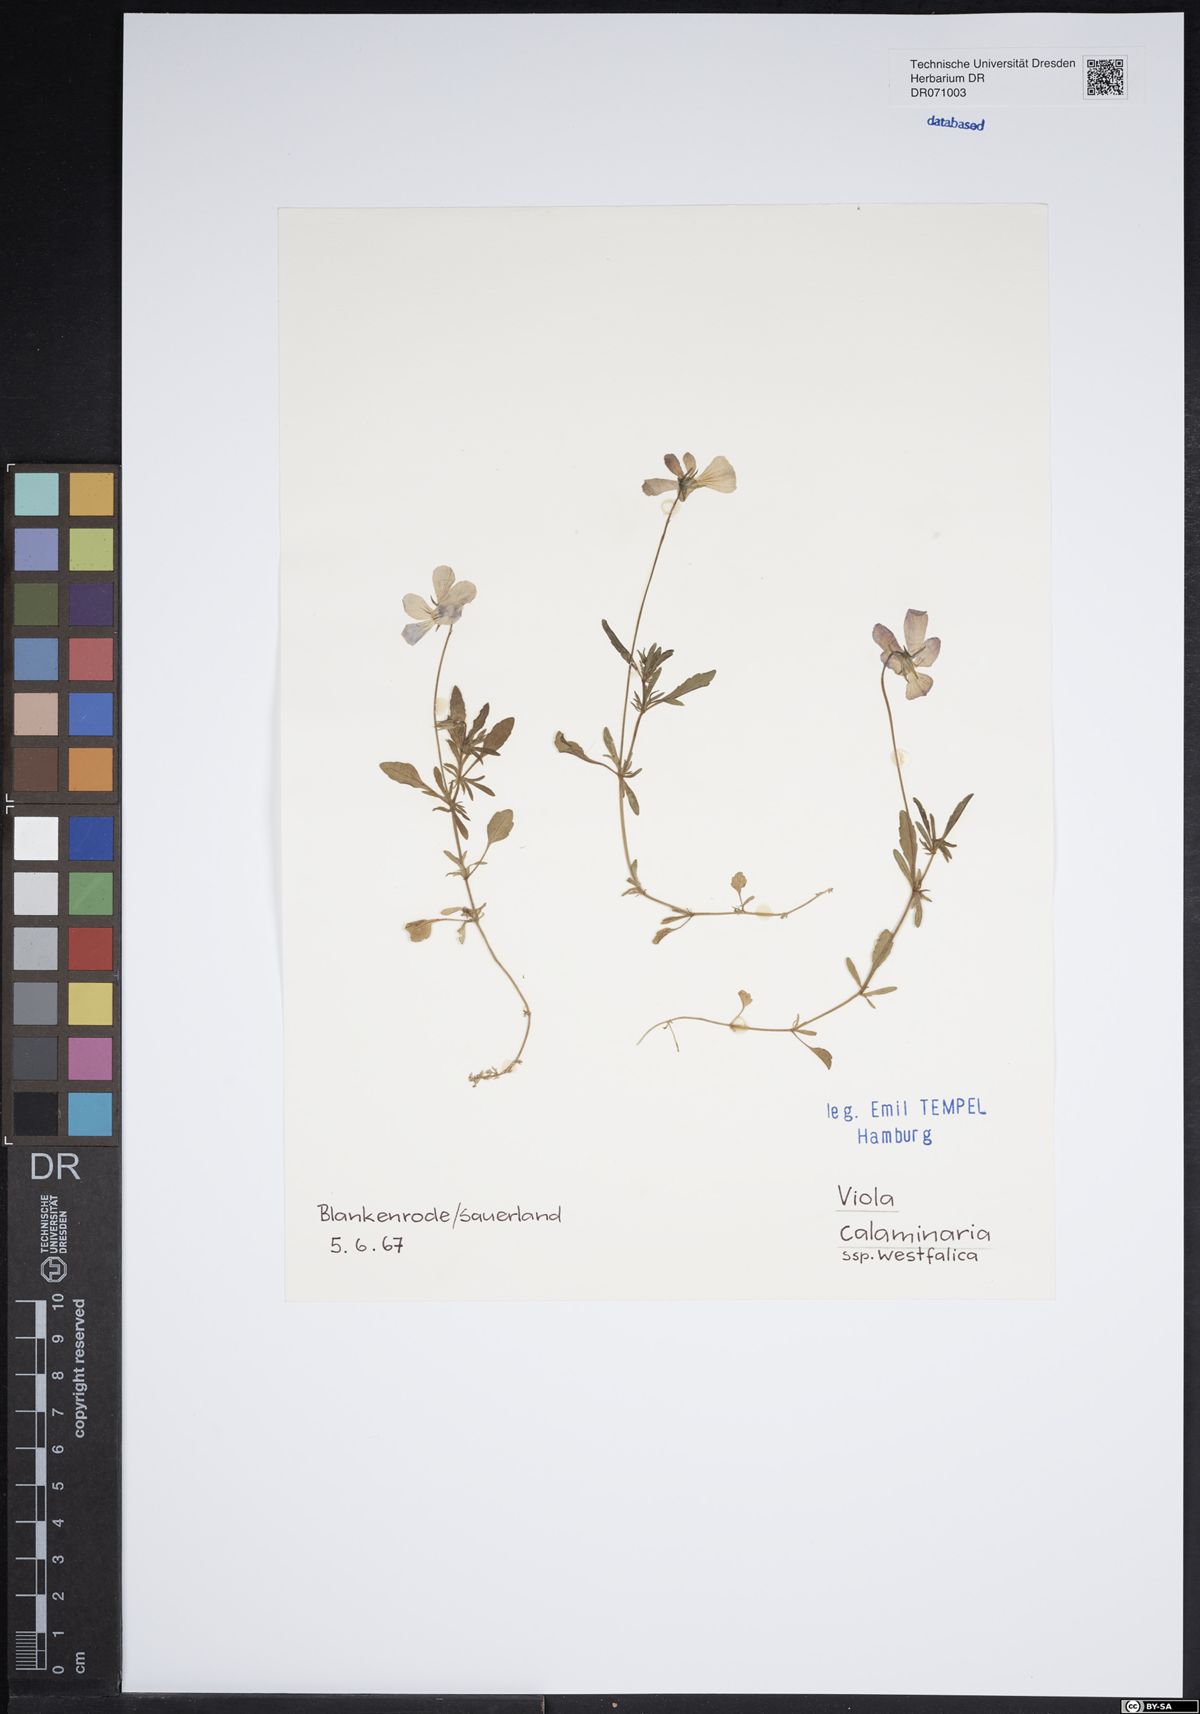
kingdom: Plantae
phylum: Tracheophyta
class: Magnoliopsida
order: Malpighiales
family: Violaceae
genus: Viola
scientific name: Viola lutea
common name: Mountain pansy
